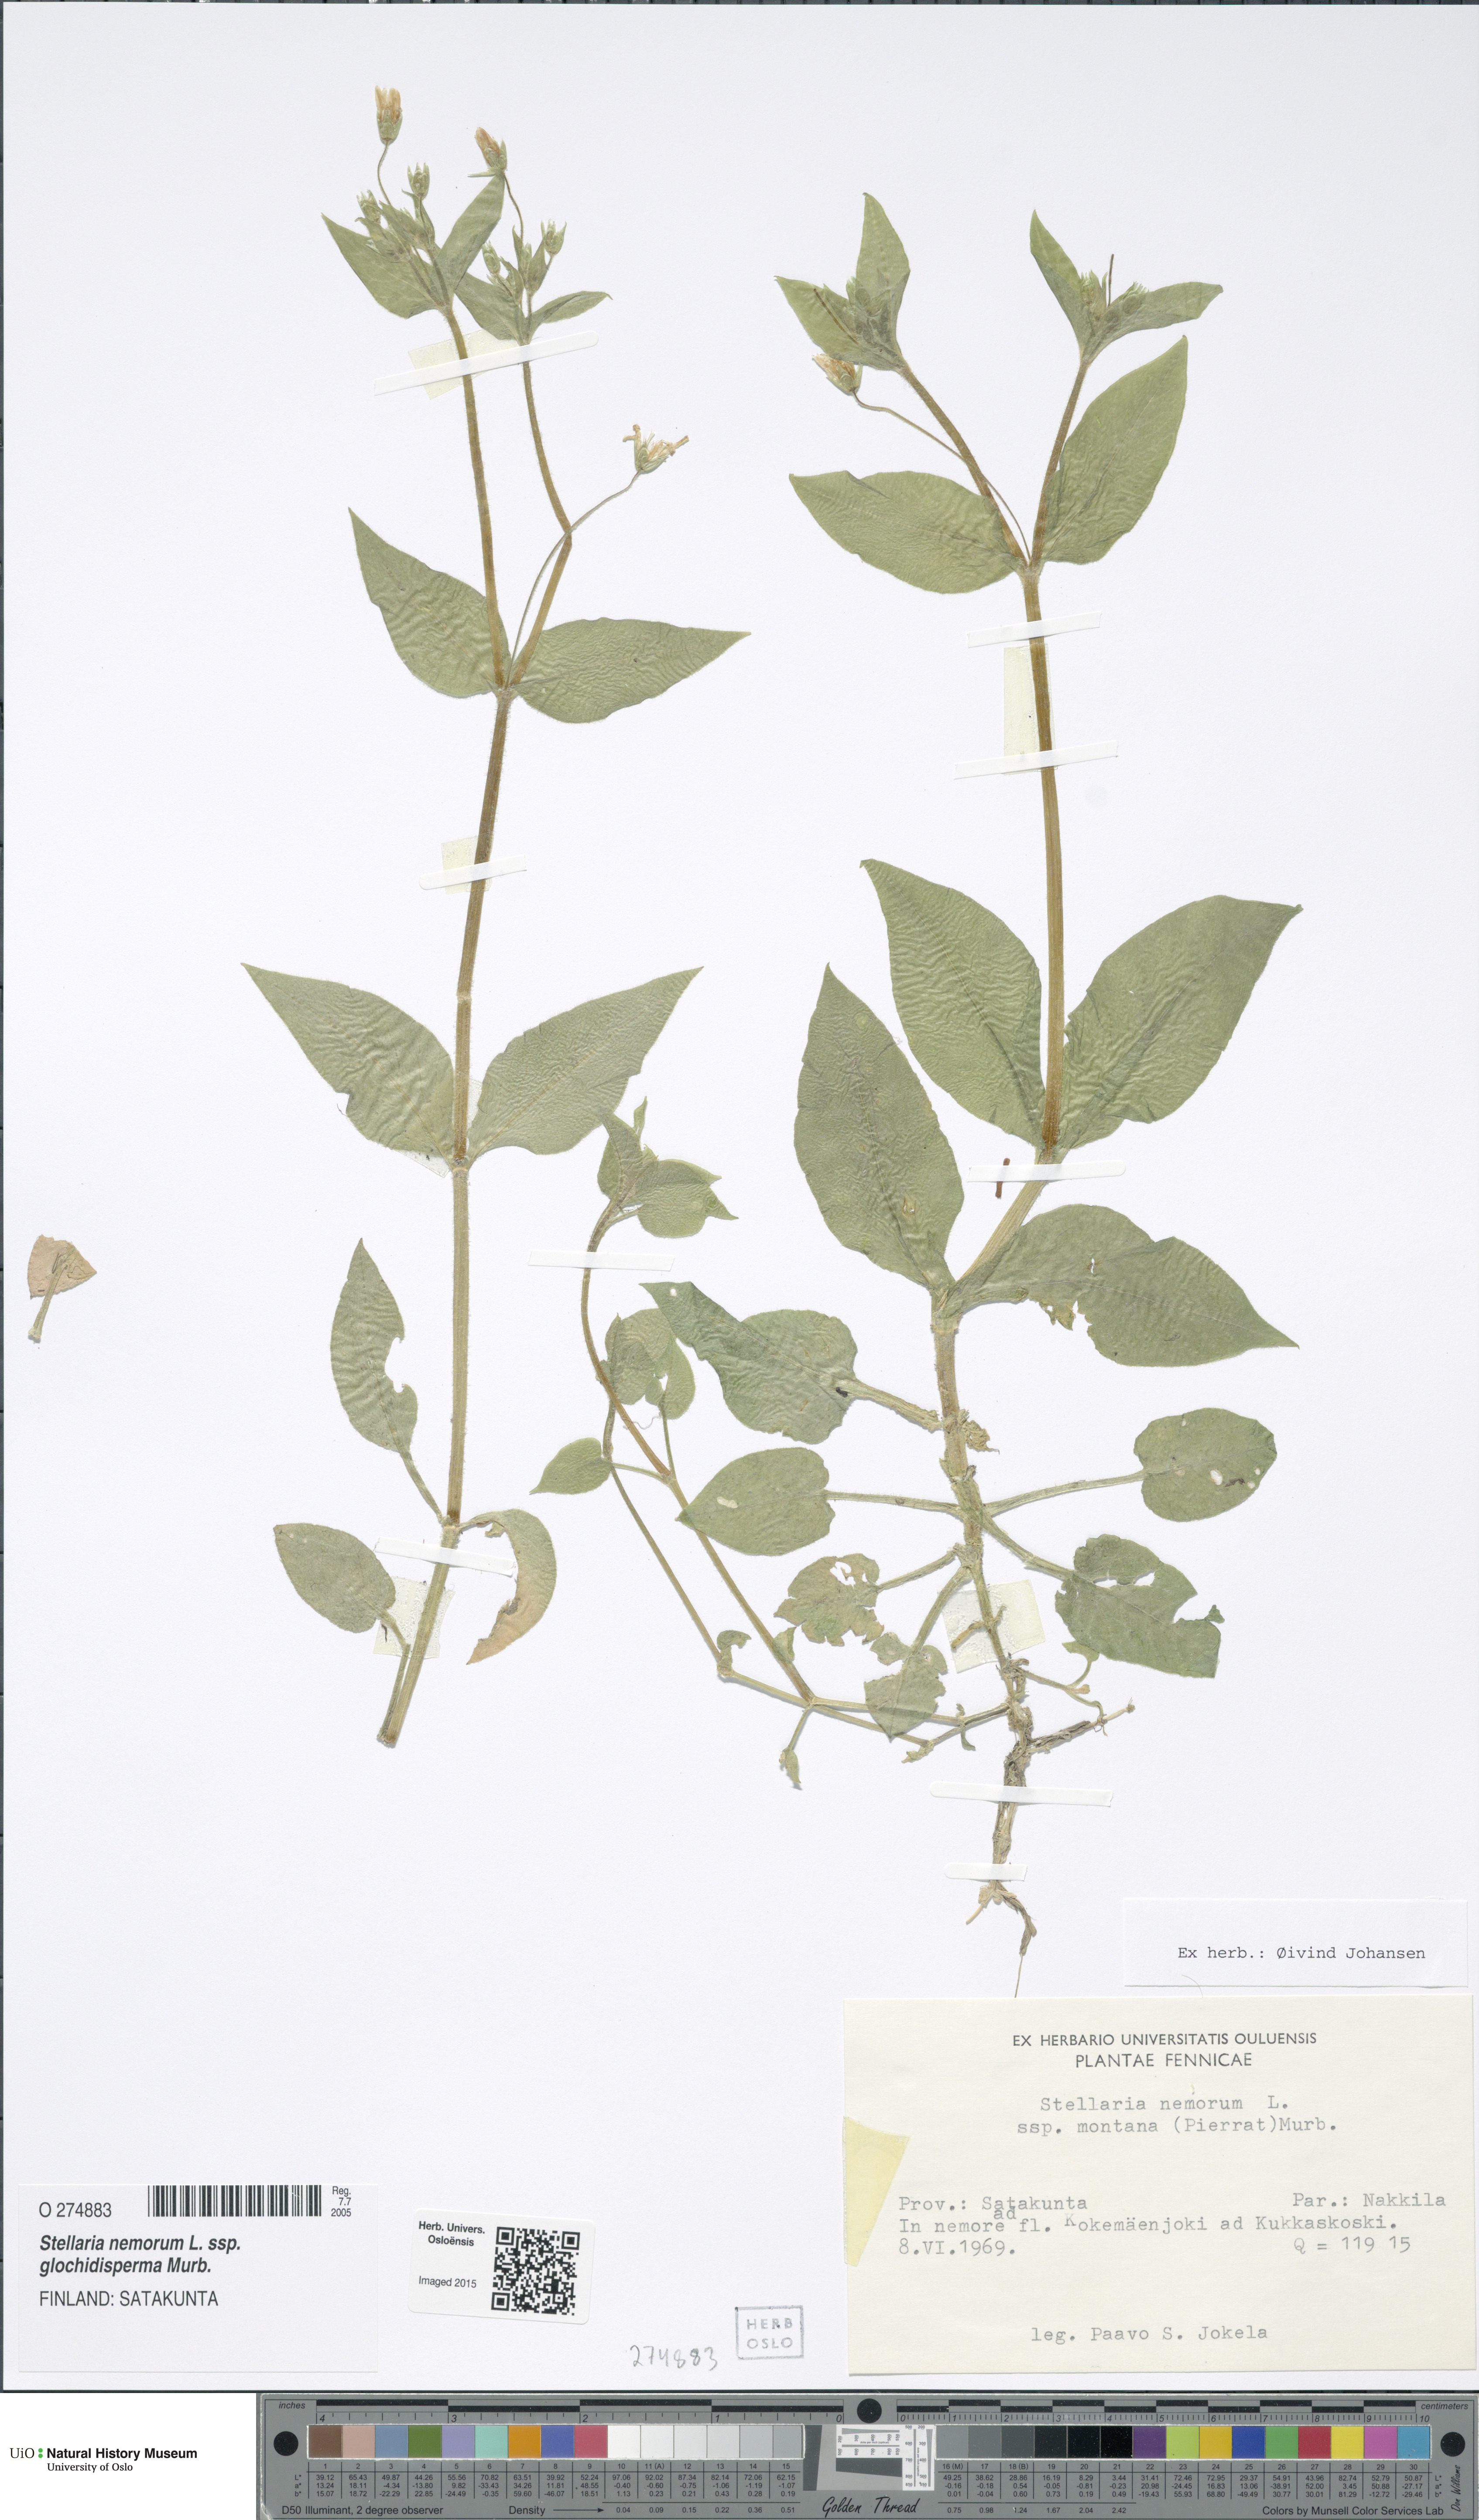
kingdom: Plantae
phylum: Tracheophyta
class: Magnoliopsida
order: Caryophyllales
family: Caryophyllaceae
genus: Stellaria
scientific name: Stellaria glochidisperma
